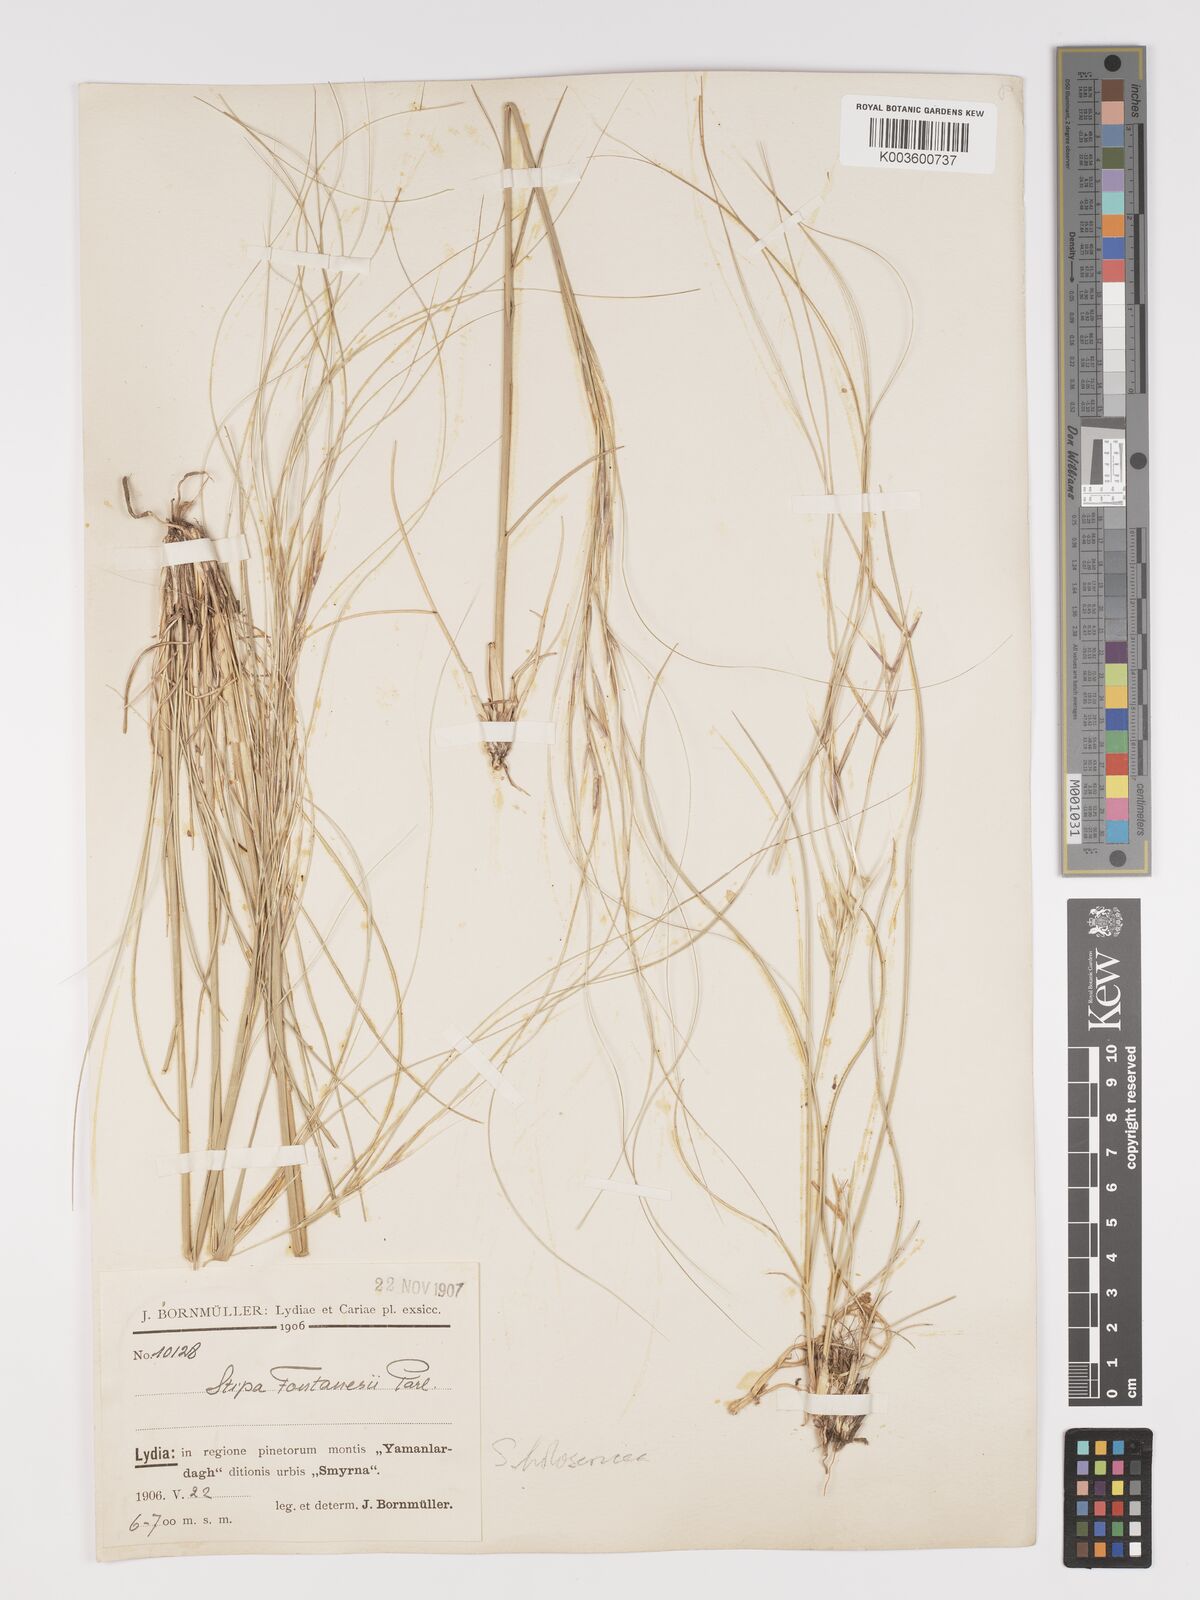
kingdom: Plantae
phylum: Tracheophyta
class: Liliopsida
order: Poales
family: Poaceae
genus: Stipa
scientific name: Stipa lagascae
